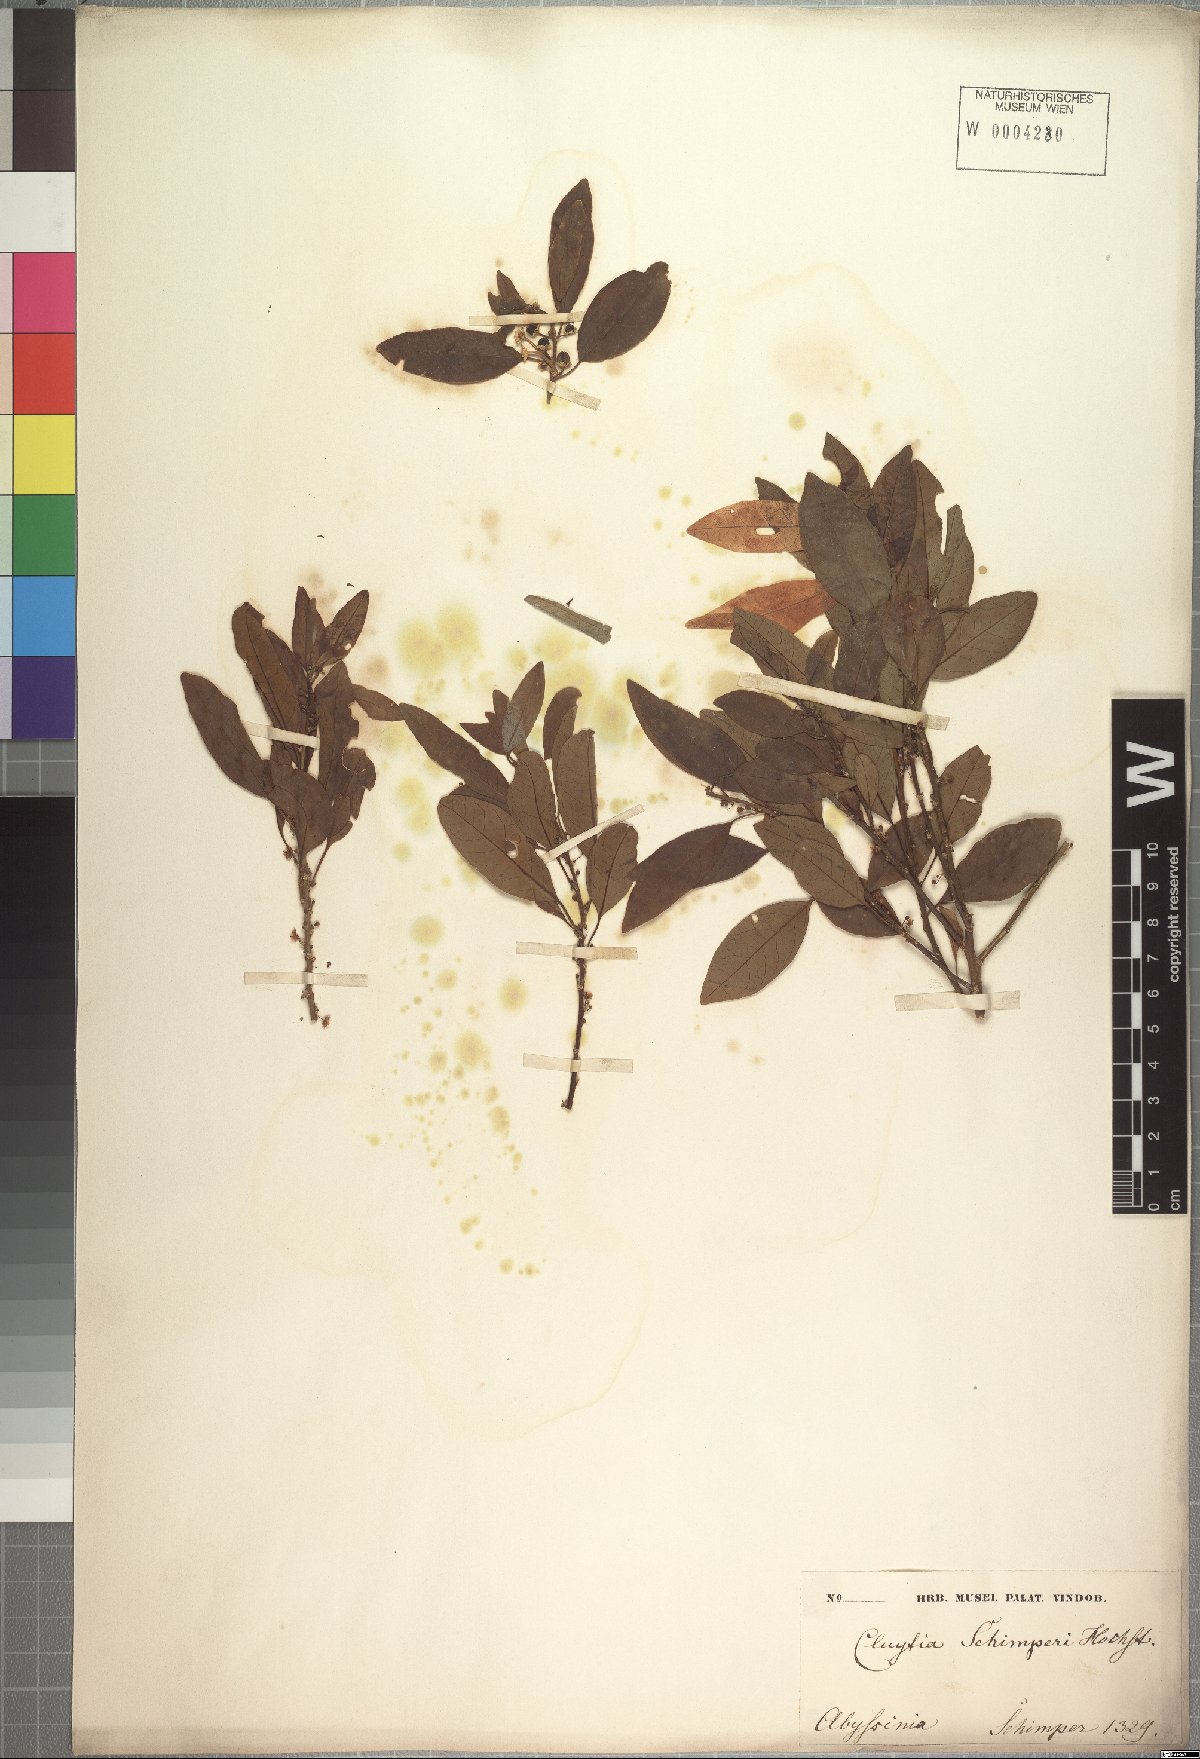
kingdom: Plantae
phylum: Tracheophyta
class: Magnoliopsida
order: Malpighiales
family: Peraceae
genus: Clutia
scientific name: Clutia abyssinica
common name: Large lightning bush
